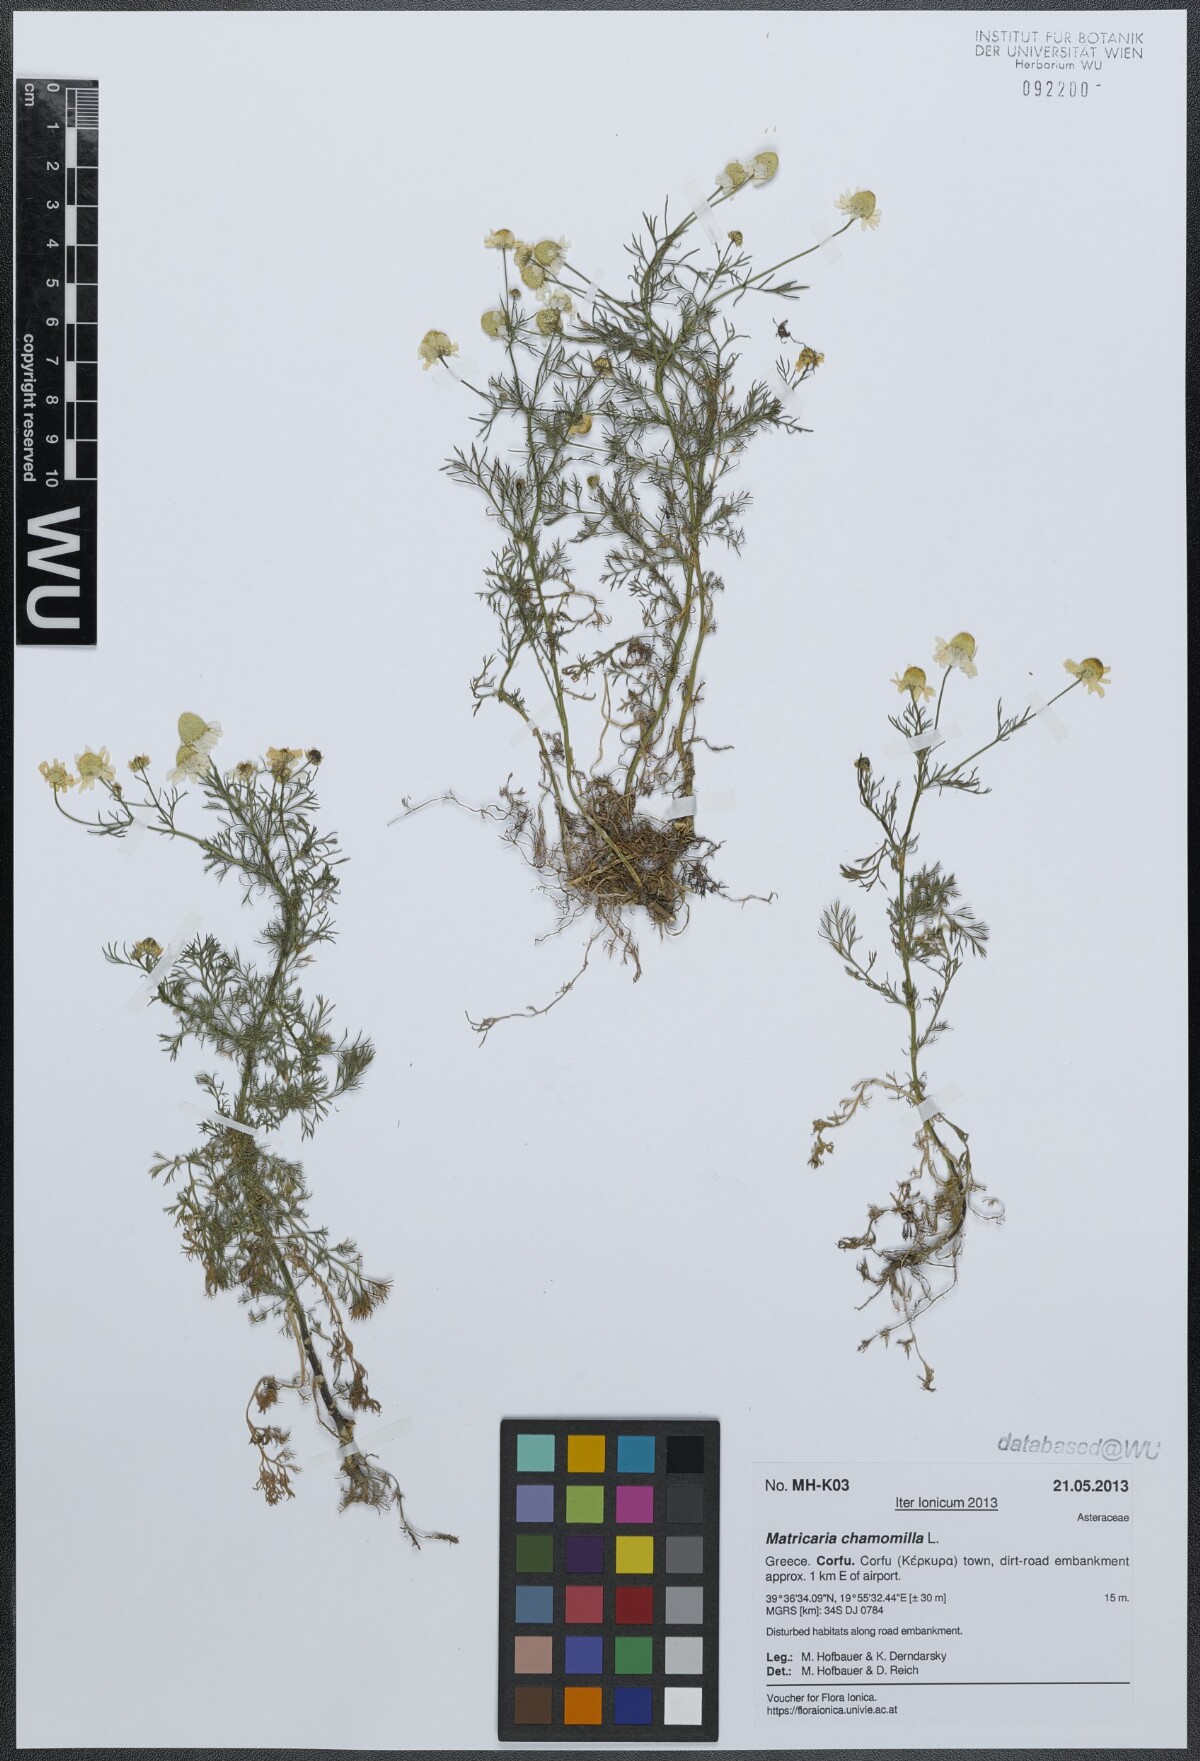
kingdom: Plantae
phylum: Tracheophyta
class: Magnoliopsida
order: Asterales
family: Asteraceae
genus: Matricaria
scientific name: Matricaria chamomilla
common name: Scented mayweed
